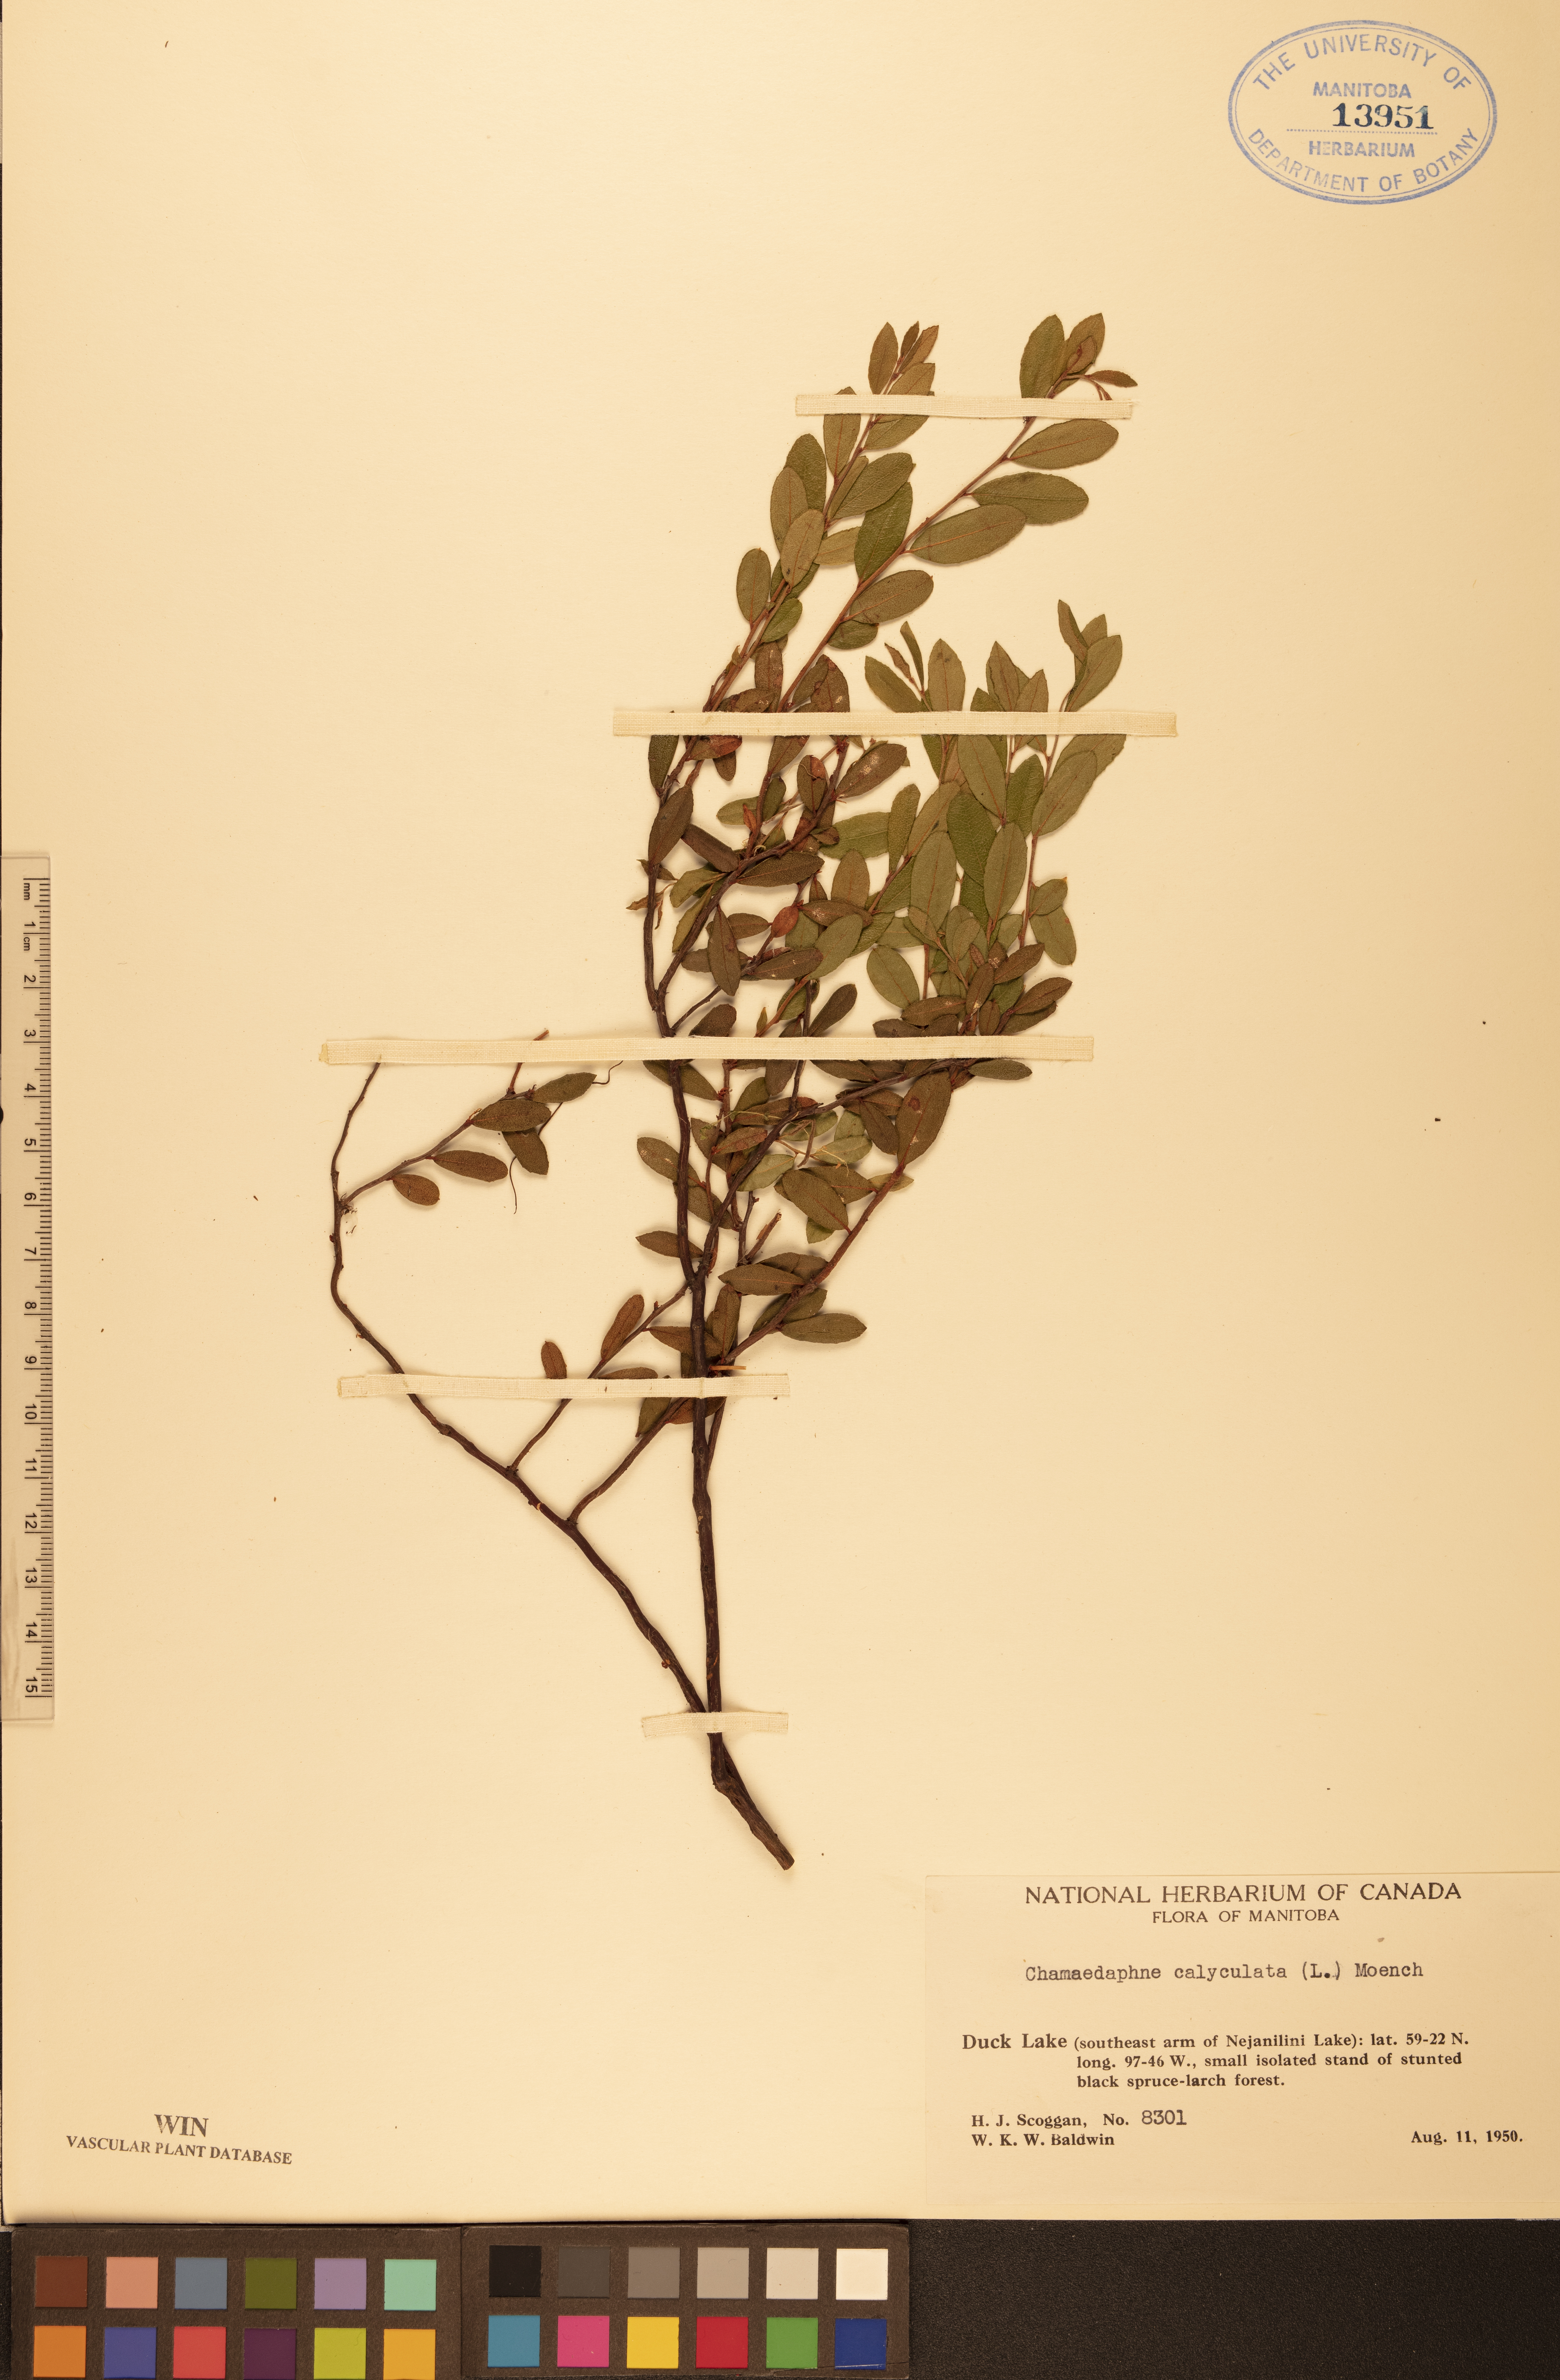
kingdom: Plantae
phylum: Tracheophyta
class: Magnoliopsida
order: Ericales
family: Ericaceae
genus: Chamaedaphne
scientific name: Chamaedaphne calyculata
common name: Leatherleaf
